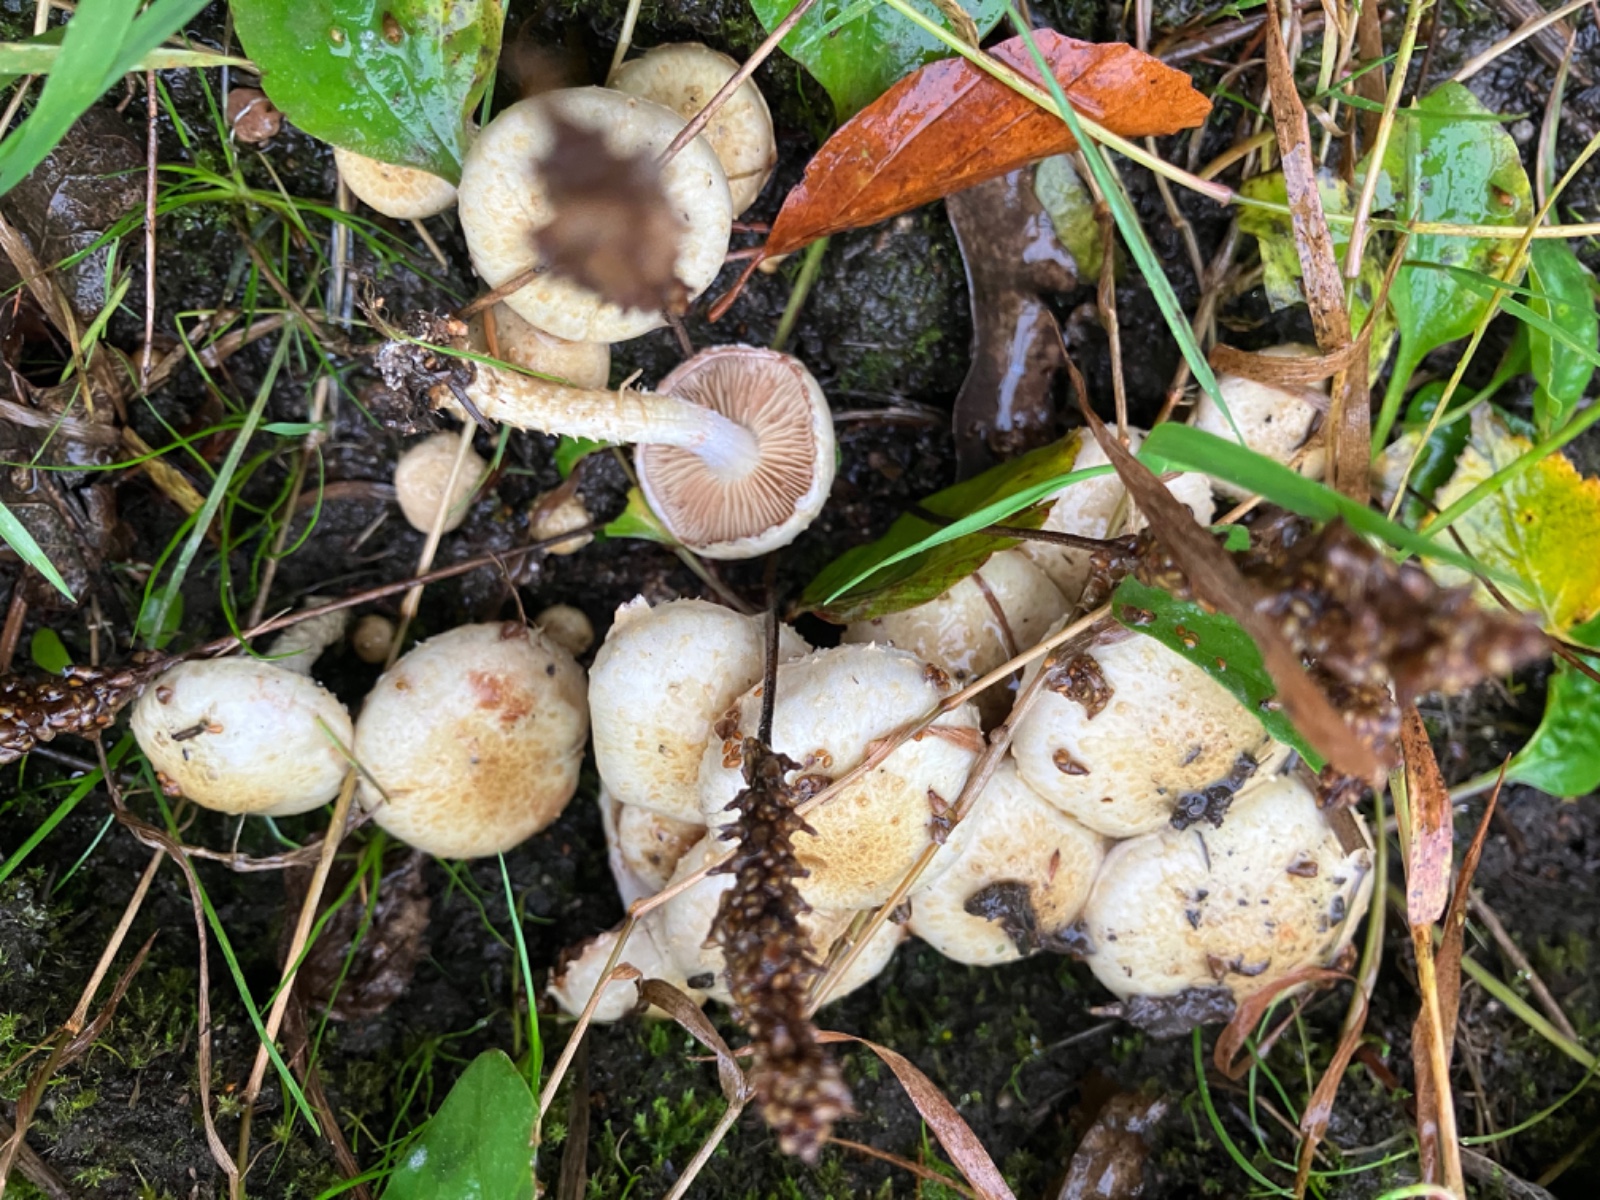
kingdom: Fungi
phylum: Basidiomycota
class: Agaricomycetes
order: Agaricales
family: Strophariaceae
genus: Pholiota
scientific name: Pholiota gummosa
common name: grøngul skælhat
